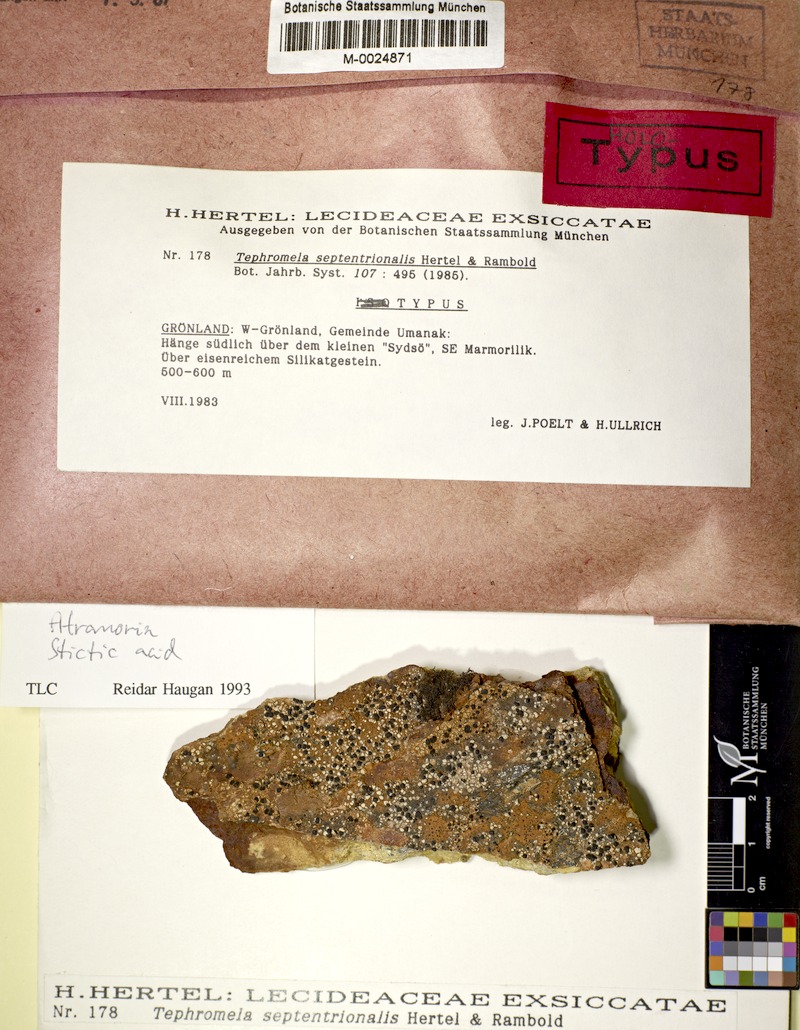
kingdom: Fungi
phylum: Ascomycota
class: Lecanoromycetes
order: Lecanorales
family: Tephromelataceae
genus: Calvitimela
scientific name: Calvitimela septentrionalis
